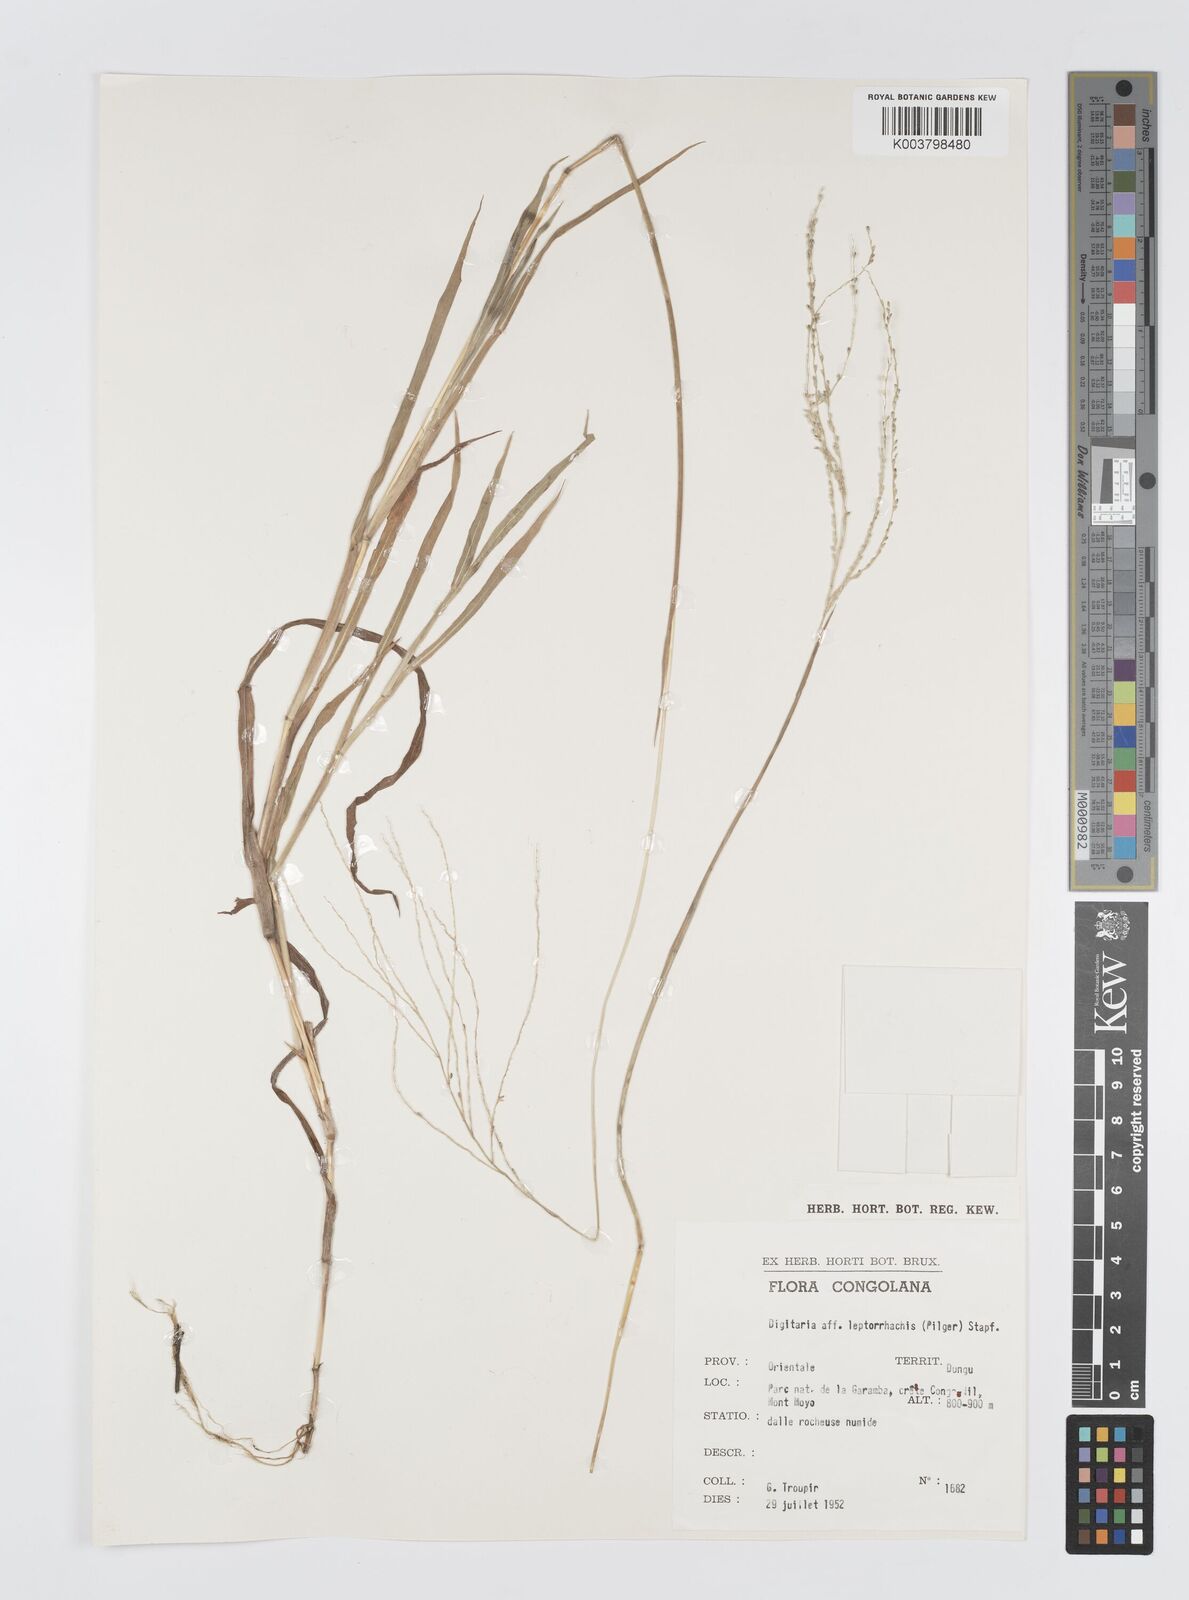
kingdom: Plantae
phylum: Tracheophyta
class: Liliopsida
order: Poales
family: Poaceae
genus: Digitaria
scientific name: Digitaria leptorhachis
